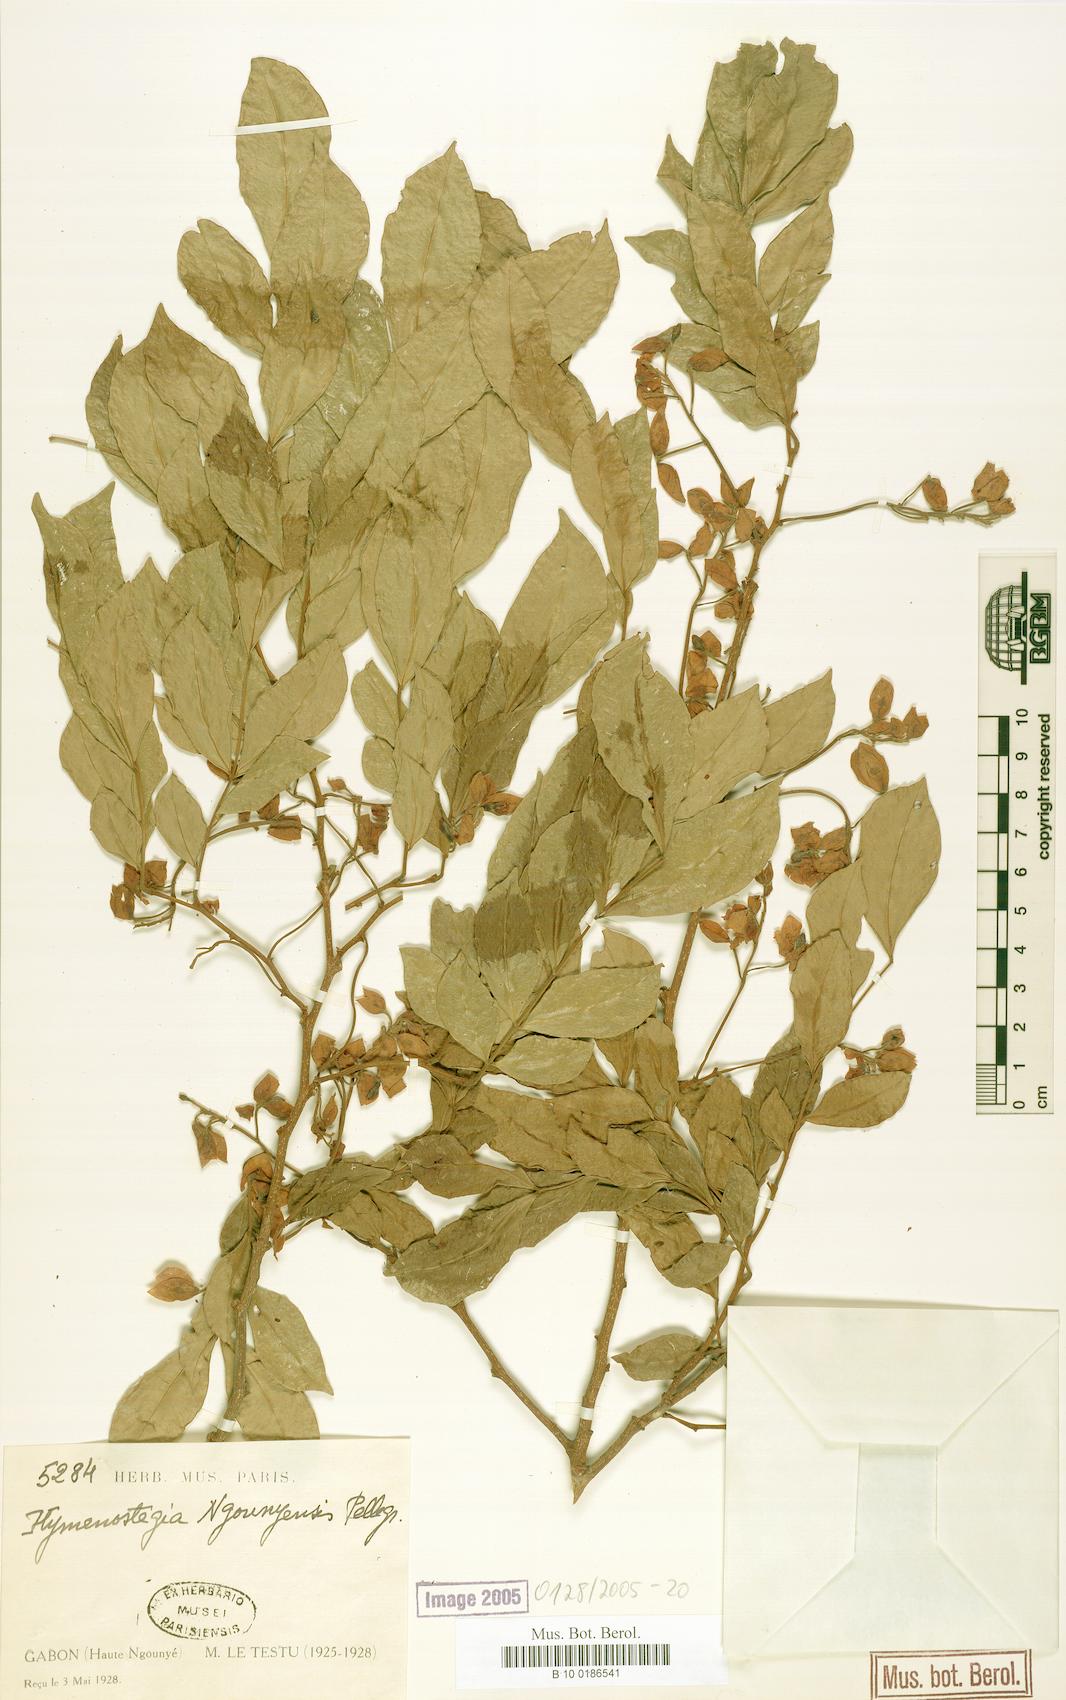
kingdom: Plantae
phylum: Tracheophyta
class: Magnoliopsida
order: Fabales
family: Fabaceae
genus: Gabonius
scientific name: Gabonius ngouniensis
